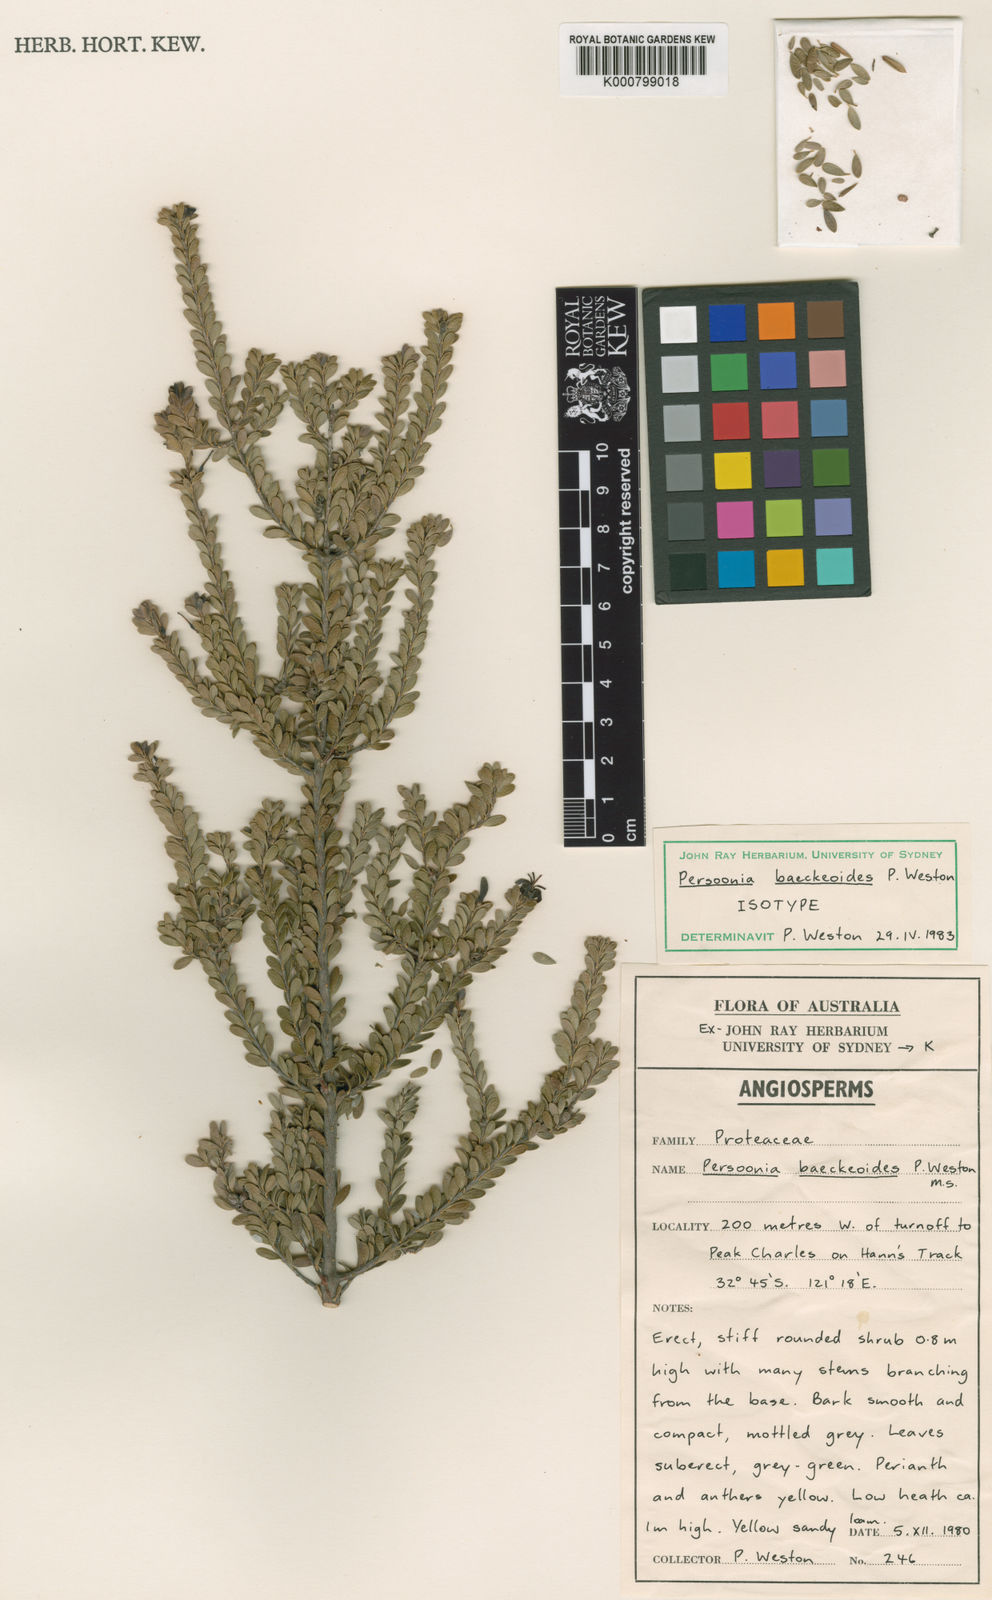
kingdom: Plantae
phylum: Tracheophyta
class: Magnoliopsida
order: Proteales
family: Proteaceae
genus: Persoonia
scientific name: Persoonia baeckeoides
